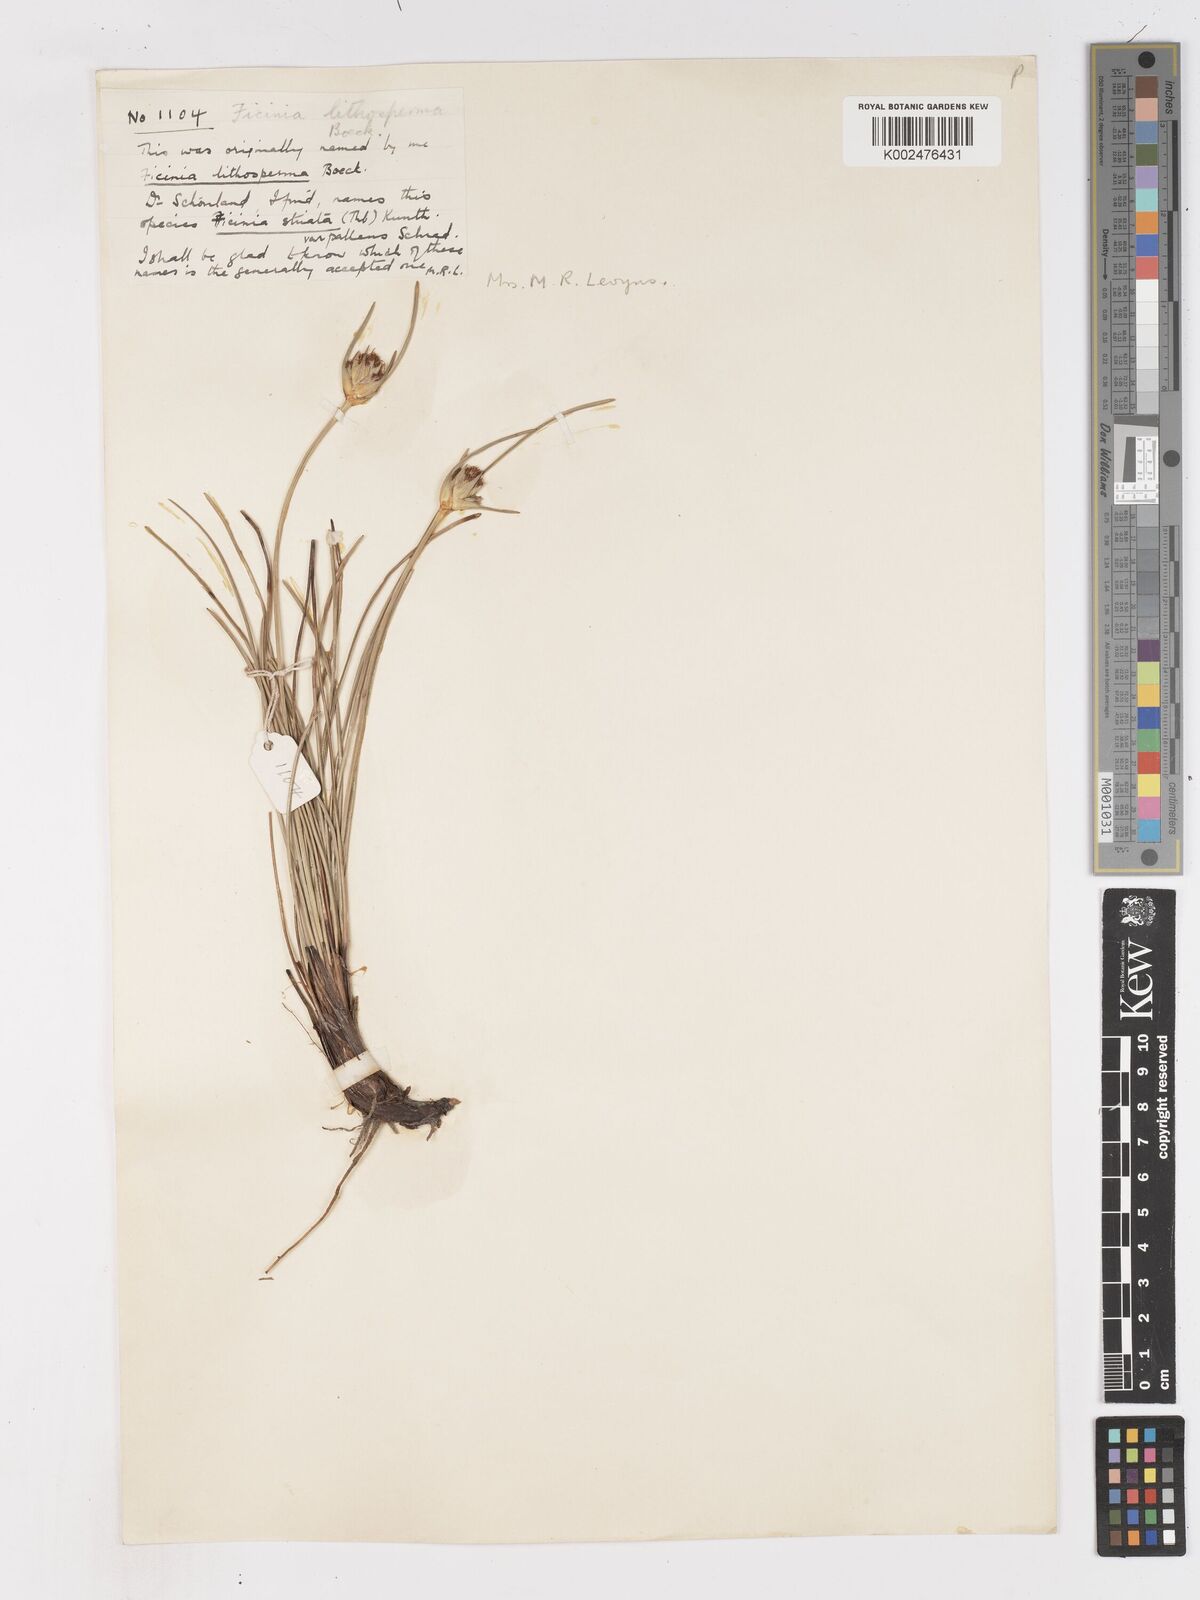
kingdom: Plantae
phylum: Tracheophyta
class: Liliopsida
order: Poales
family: Cyperaceae
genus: Ficinia
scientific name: Ficinia pallens
